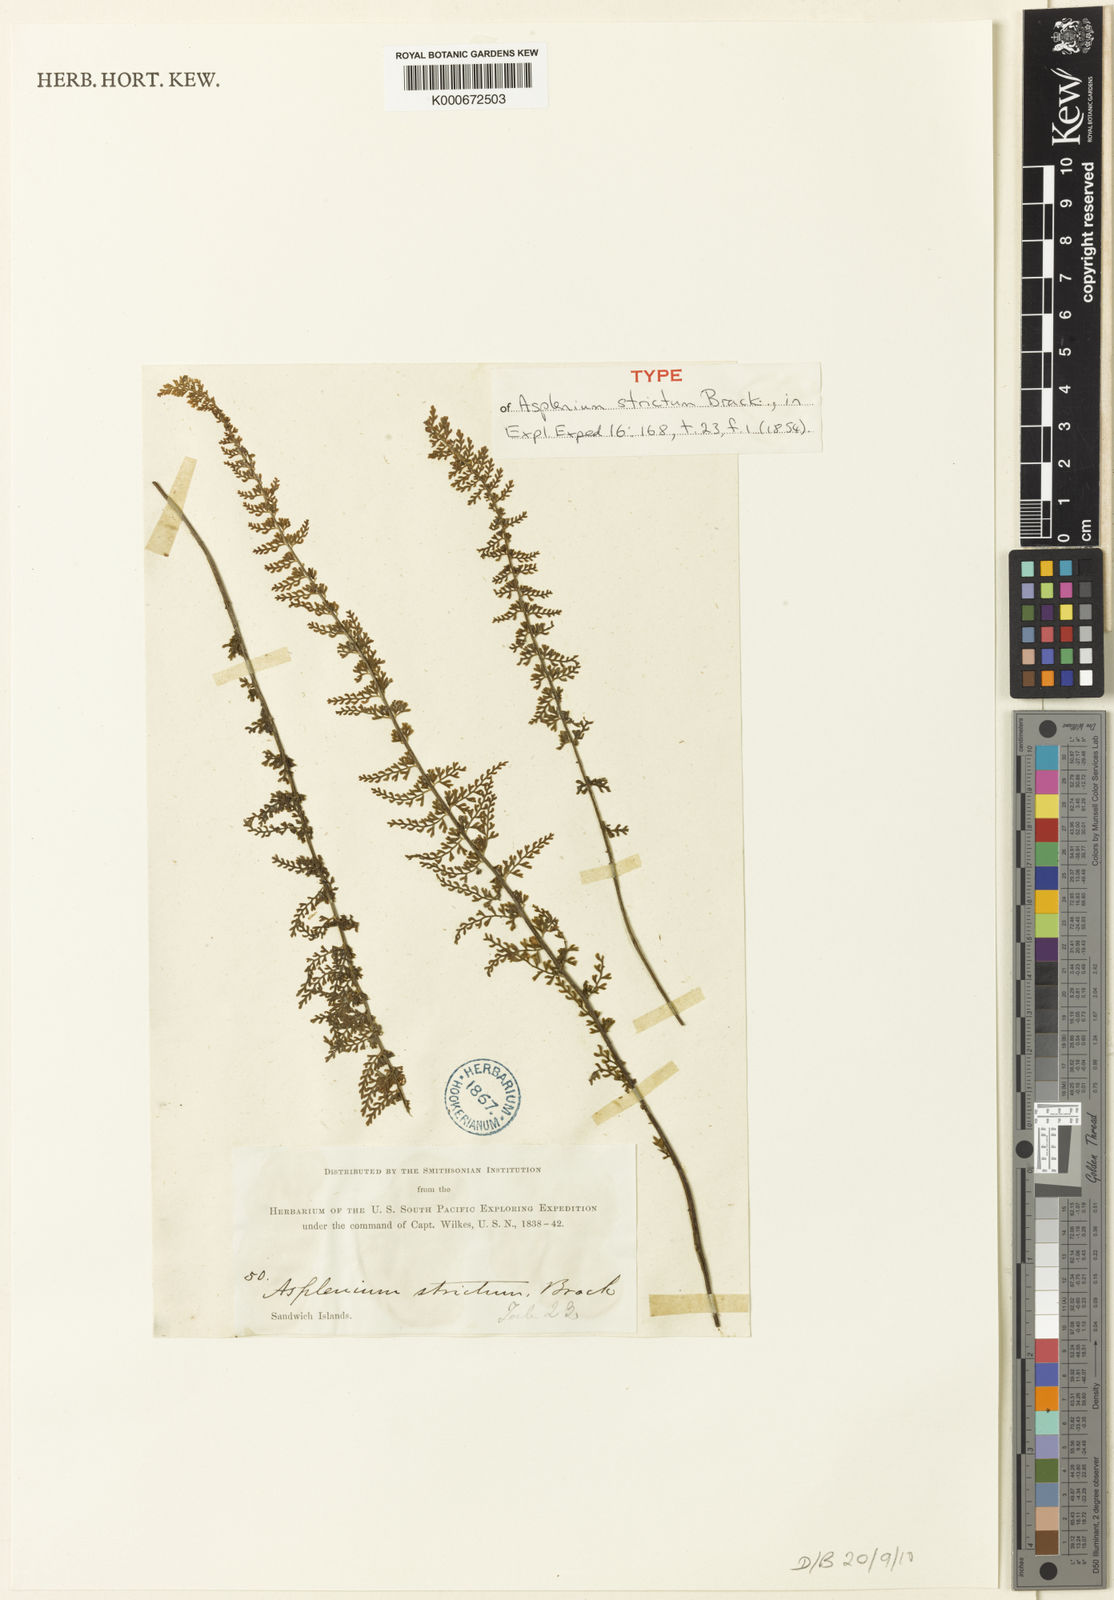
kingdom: Plantae
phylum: Tracheophyta
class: Polypodiopsida
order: Polypodiales
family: Aspleniaceae
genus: Asplenium
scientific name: Asplenium macraei
